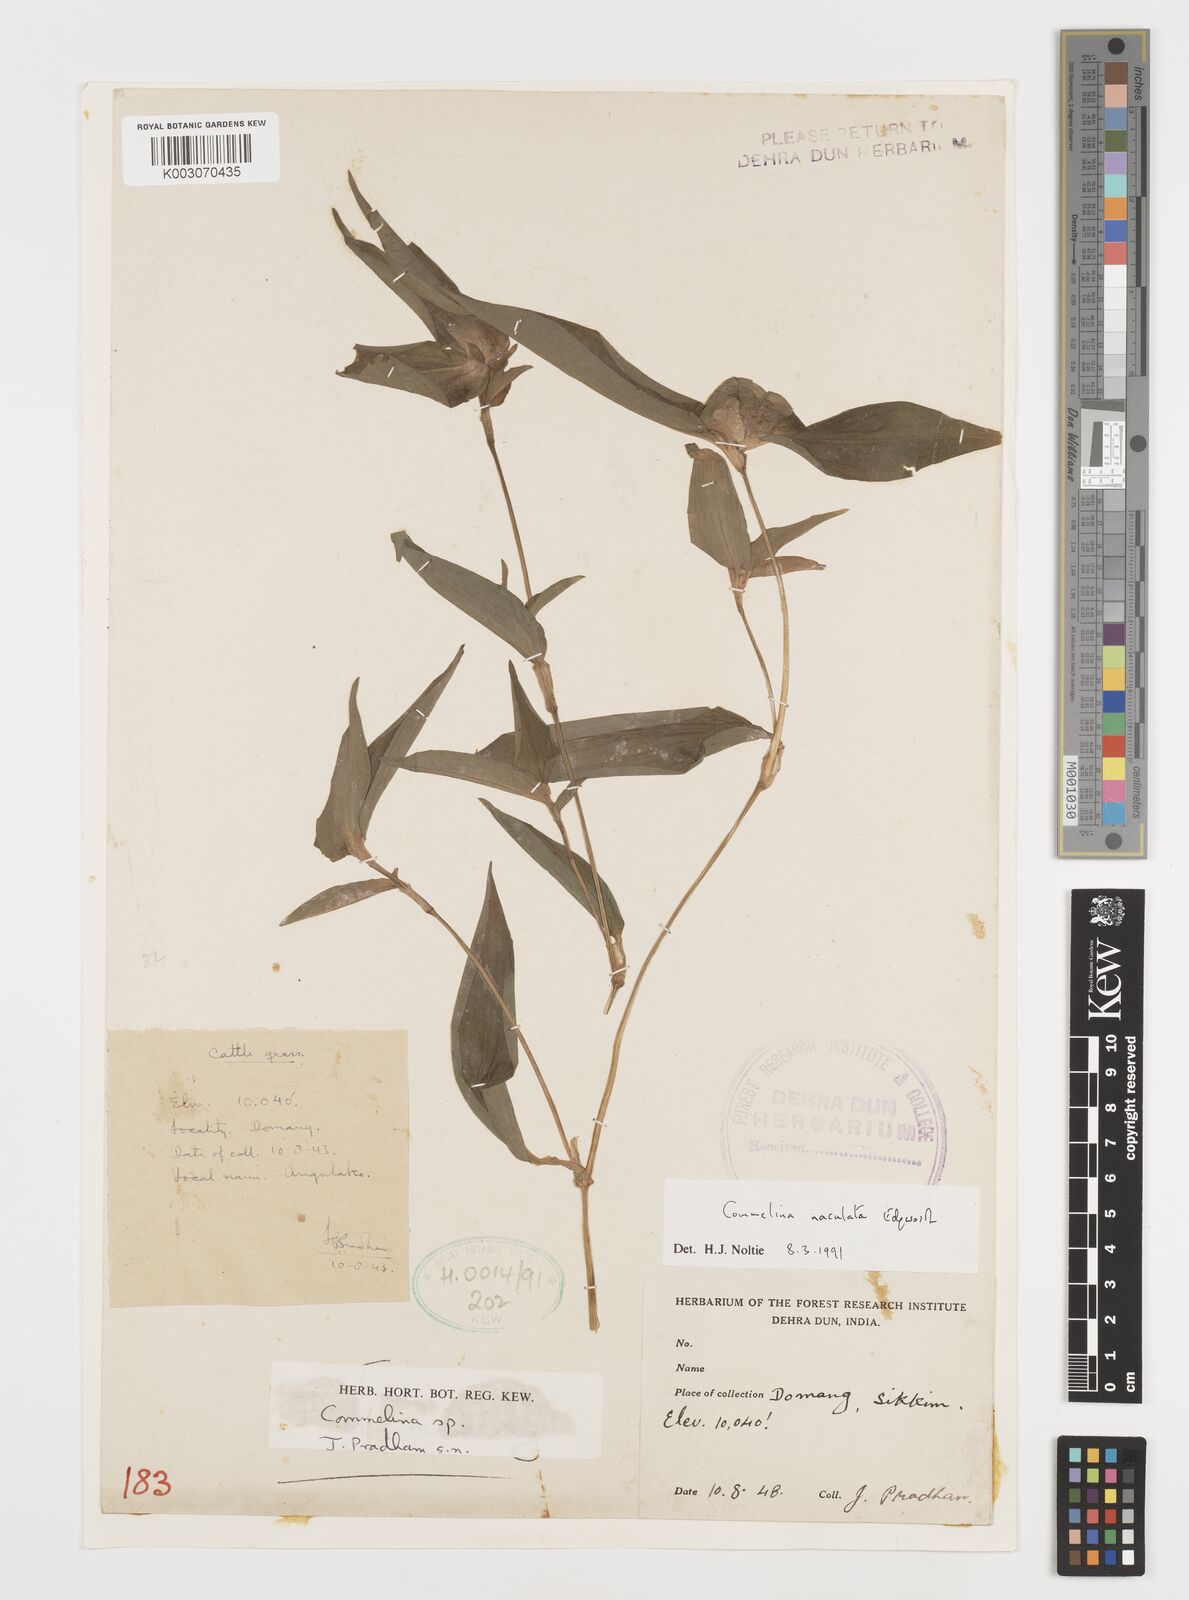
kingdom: Plantae
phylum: Tracheophyta
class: Liliopsida
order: Commelinales
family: Commelinaceae
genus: Commelina
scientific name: Commelina maculata
